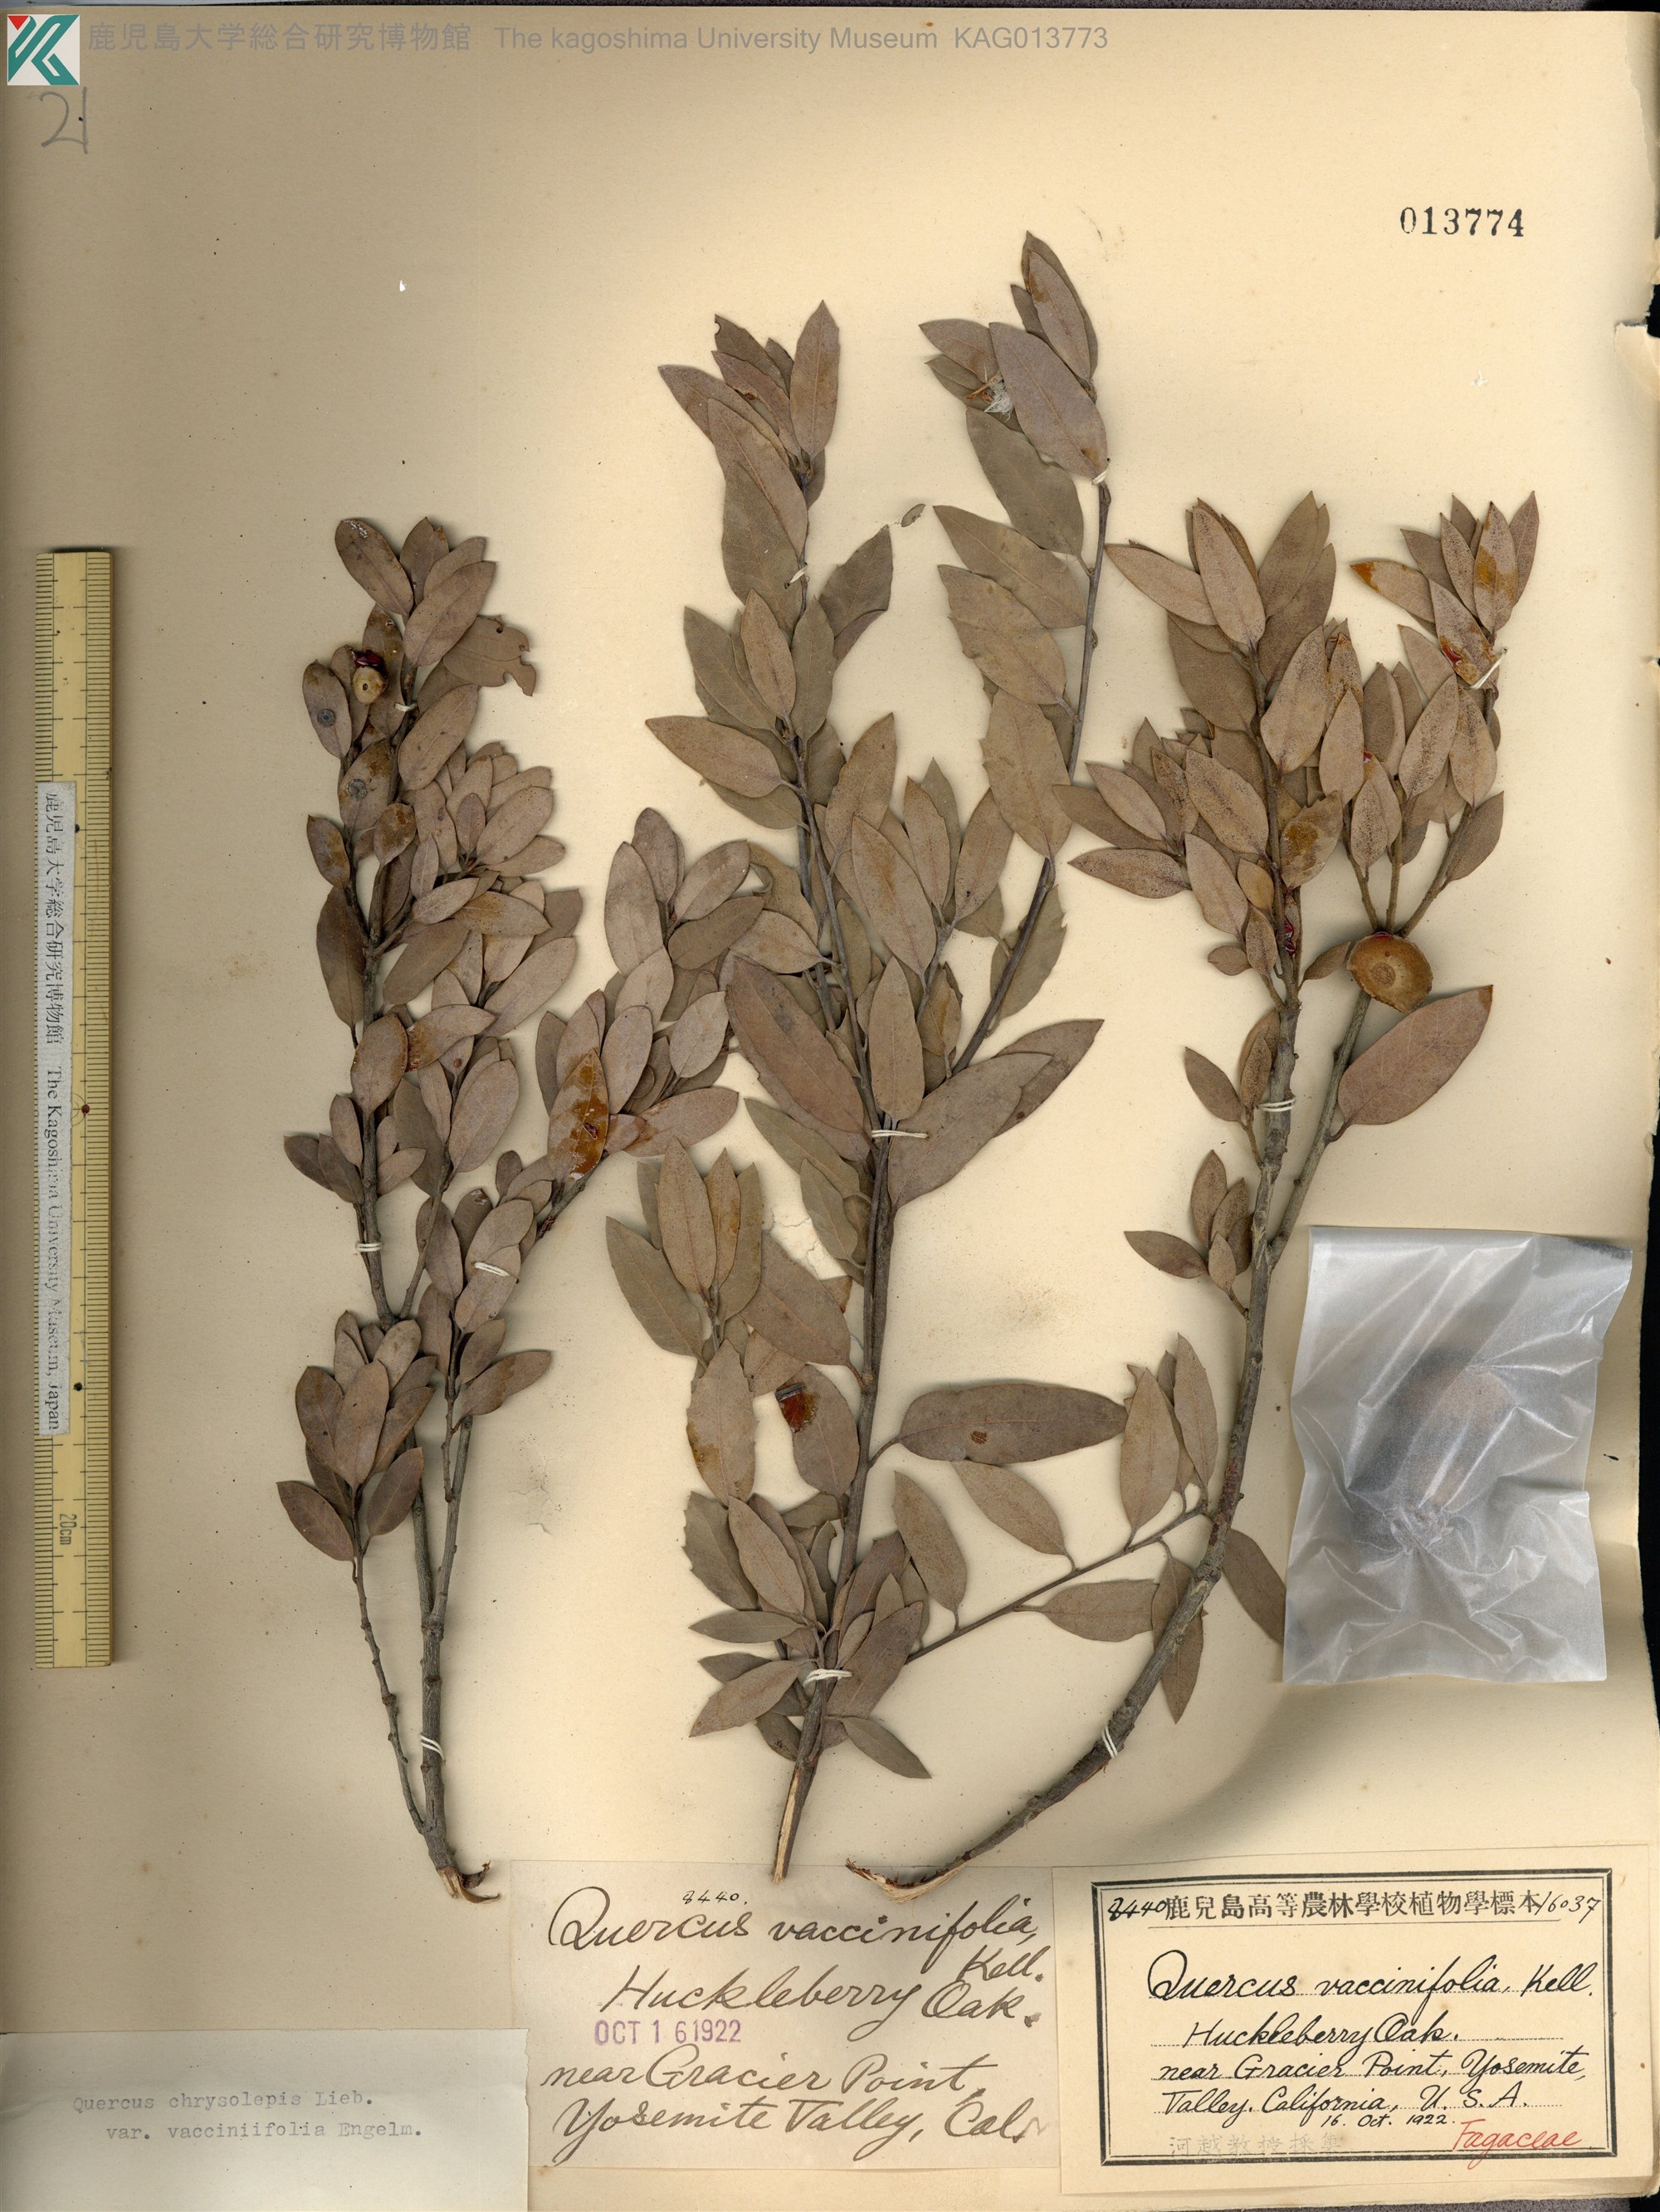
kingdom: Plantae
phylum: Tracheophyta
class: Magnoliopsida
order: Fagales
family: Fagaceae
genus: Quercus
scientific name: Quercus chrysolepis
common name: Canyon live oak
